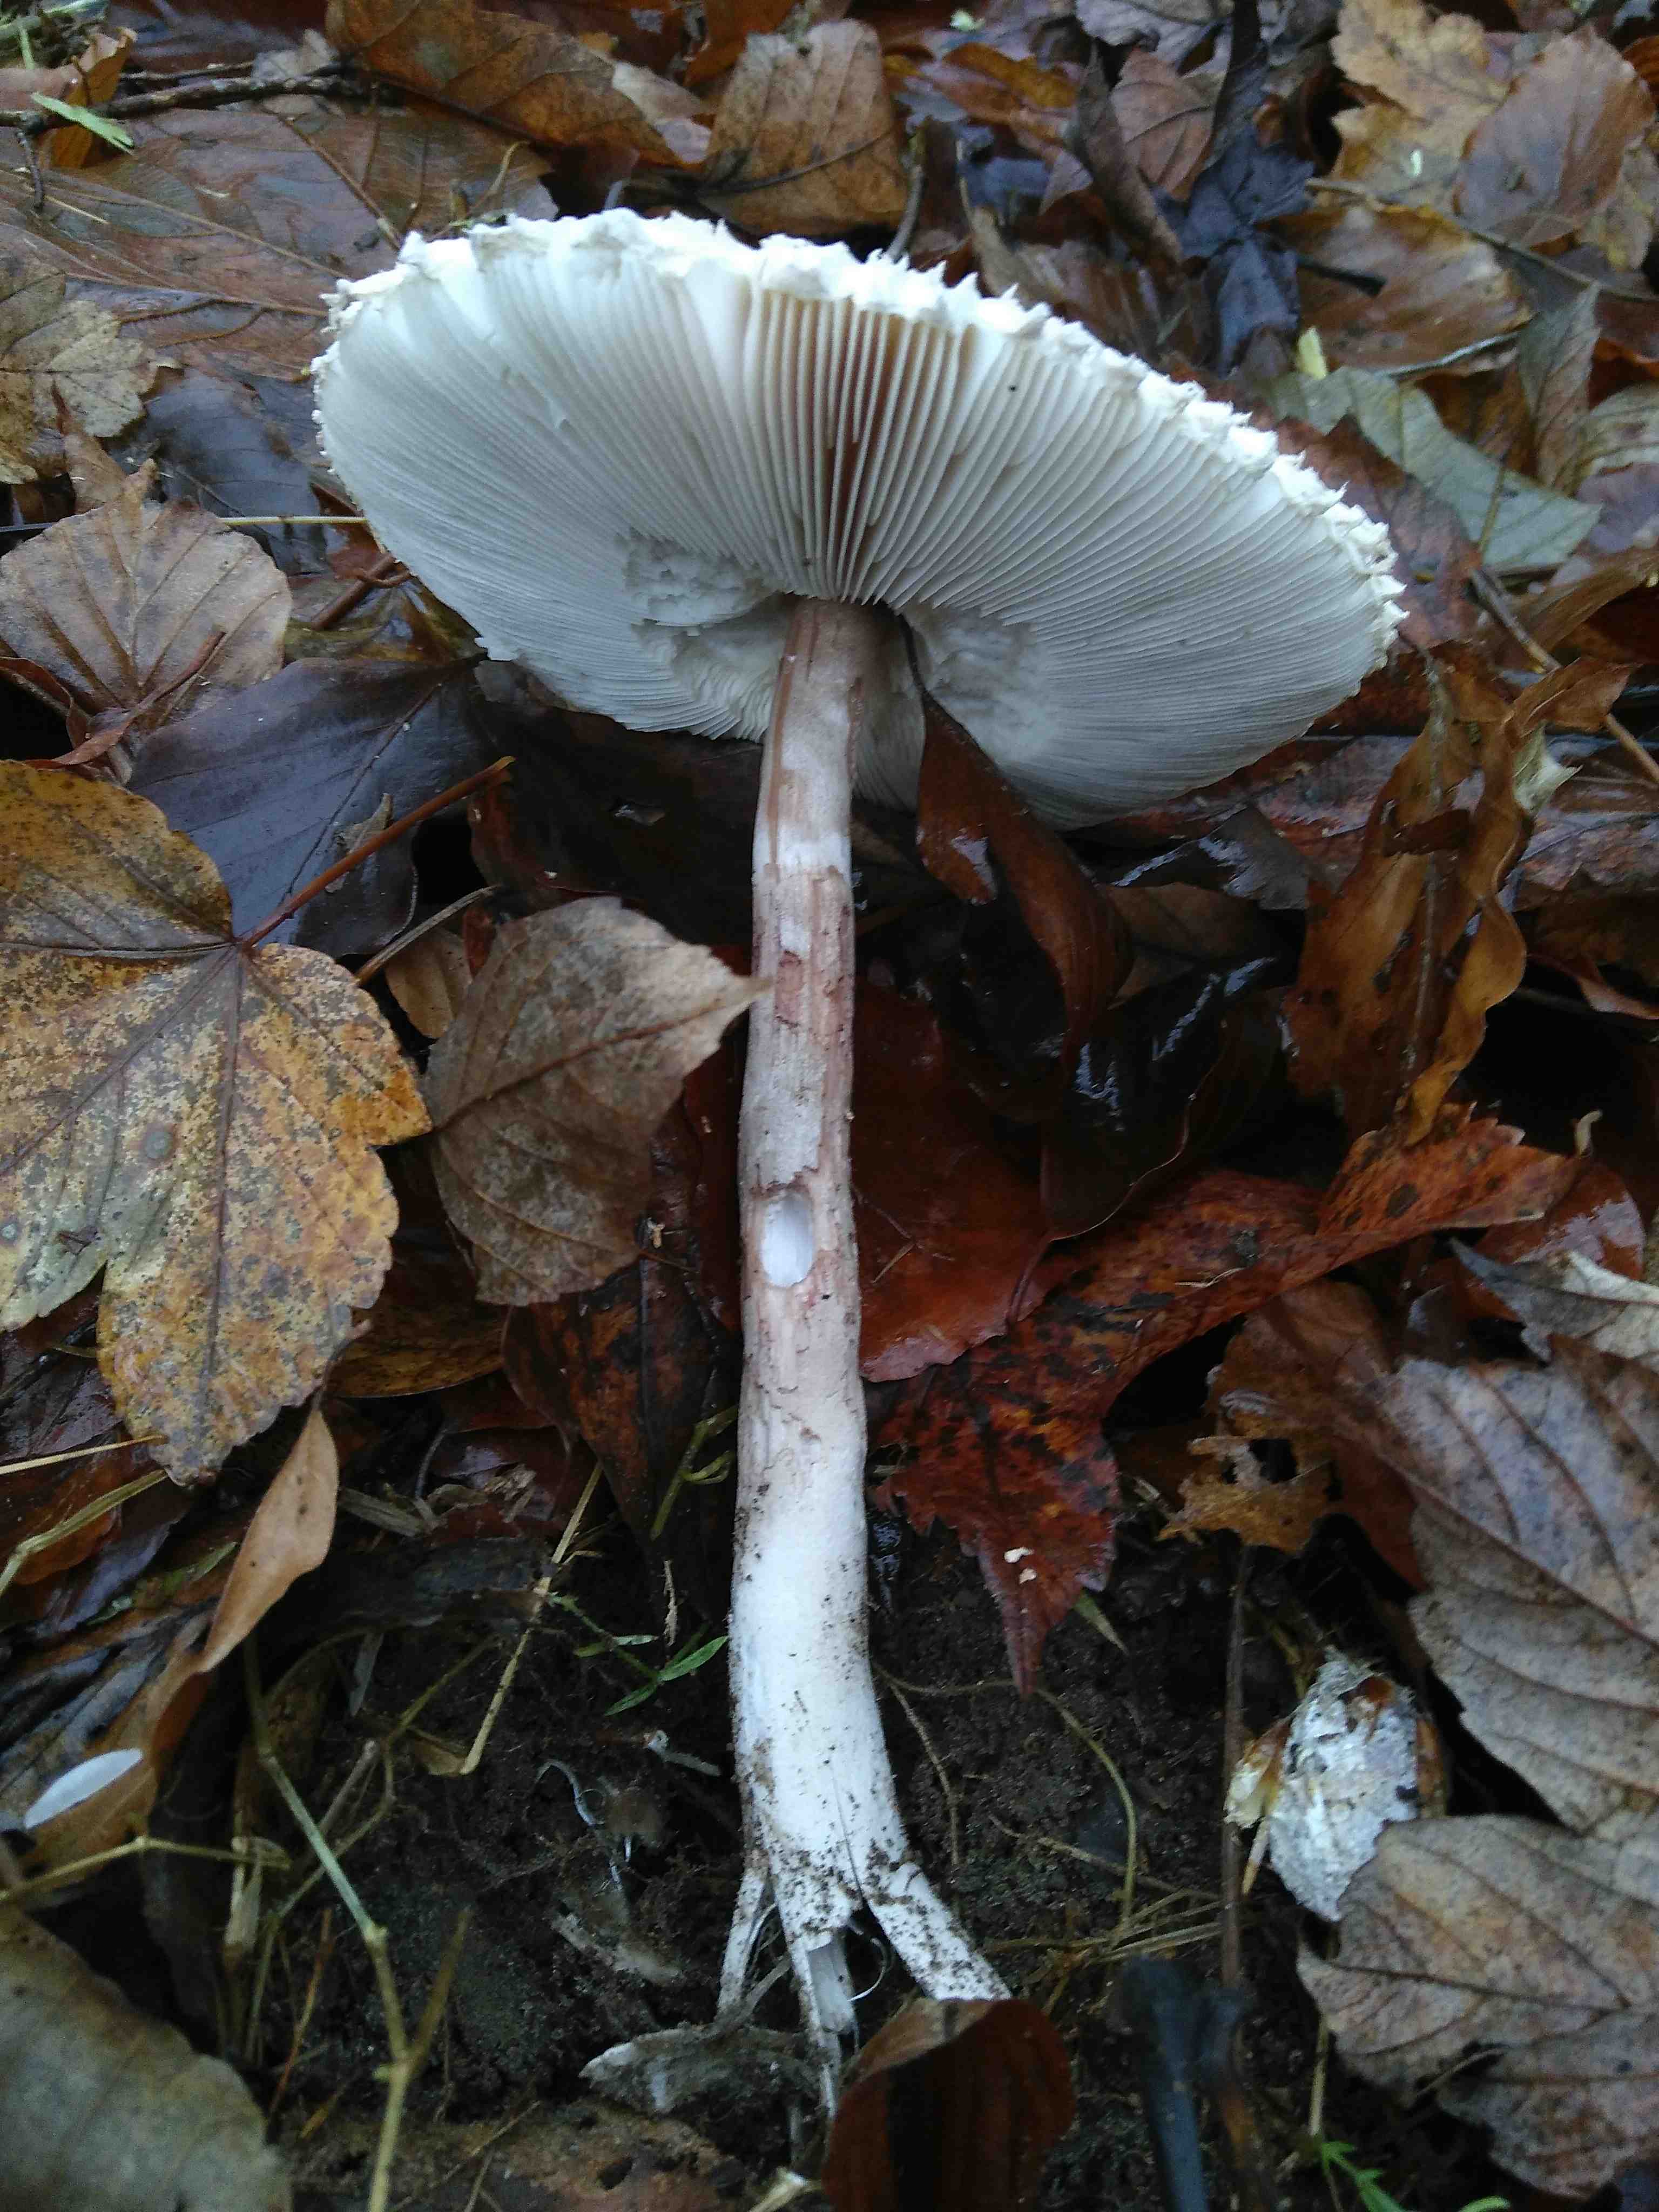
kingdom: Fungi
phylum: Basidiomycota
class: Agaricomycetes
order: Agaricales
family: Agaricaceae
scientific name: Agaricaceae
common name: champignonfamilien
